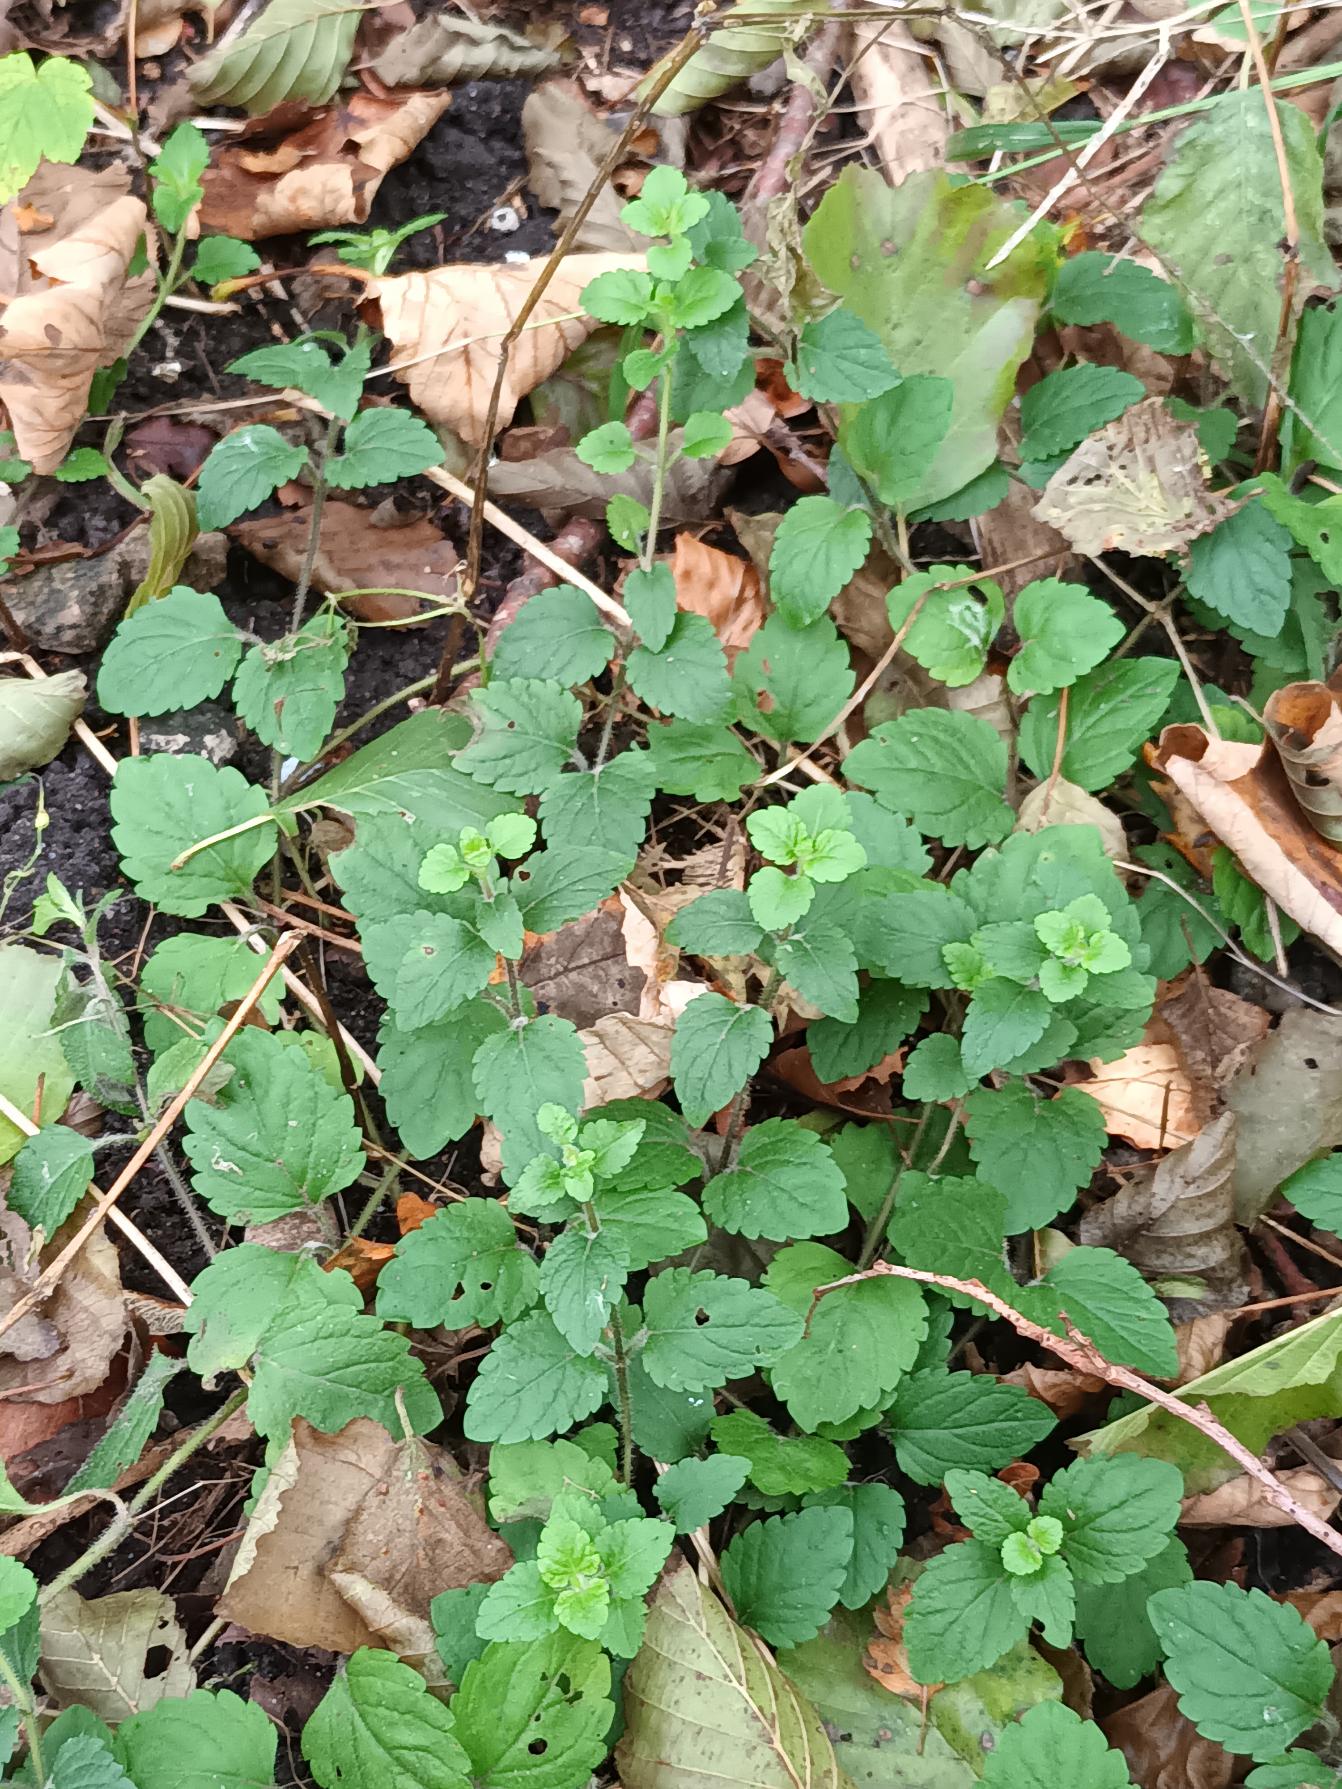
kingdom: Plantae
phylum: Tracheophyta
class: Magnoliopsida
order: Lamiales
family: Plantaginaceae
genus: Veronica
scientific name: Veronica montana
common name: Bjerg-ærenpris
